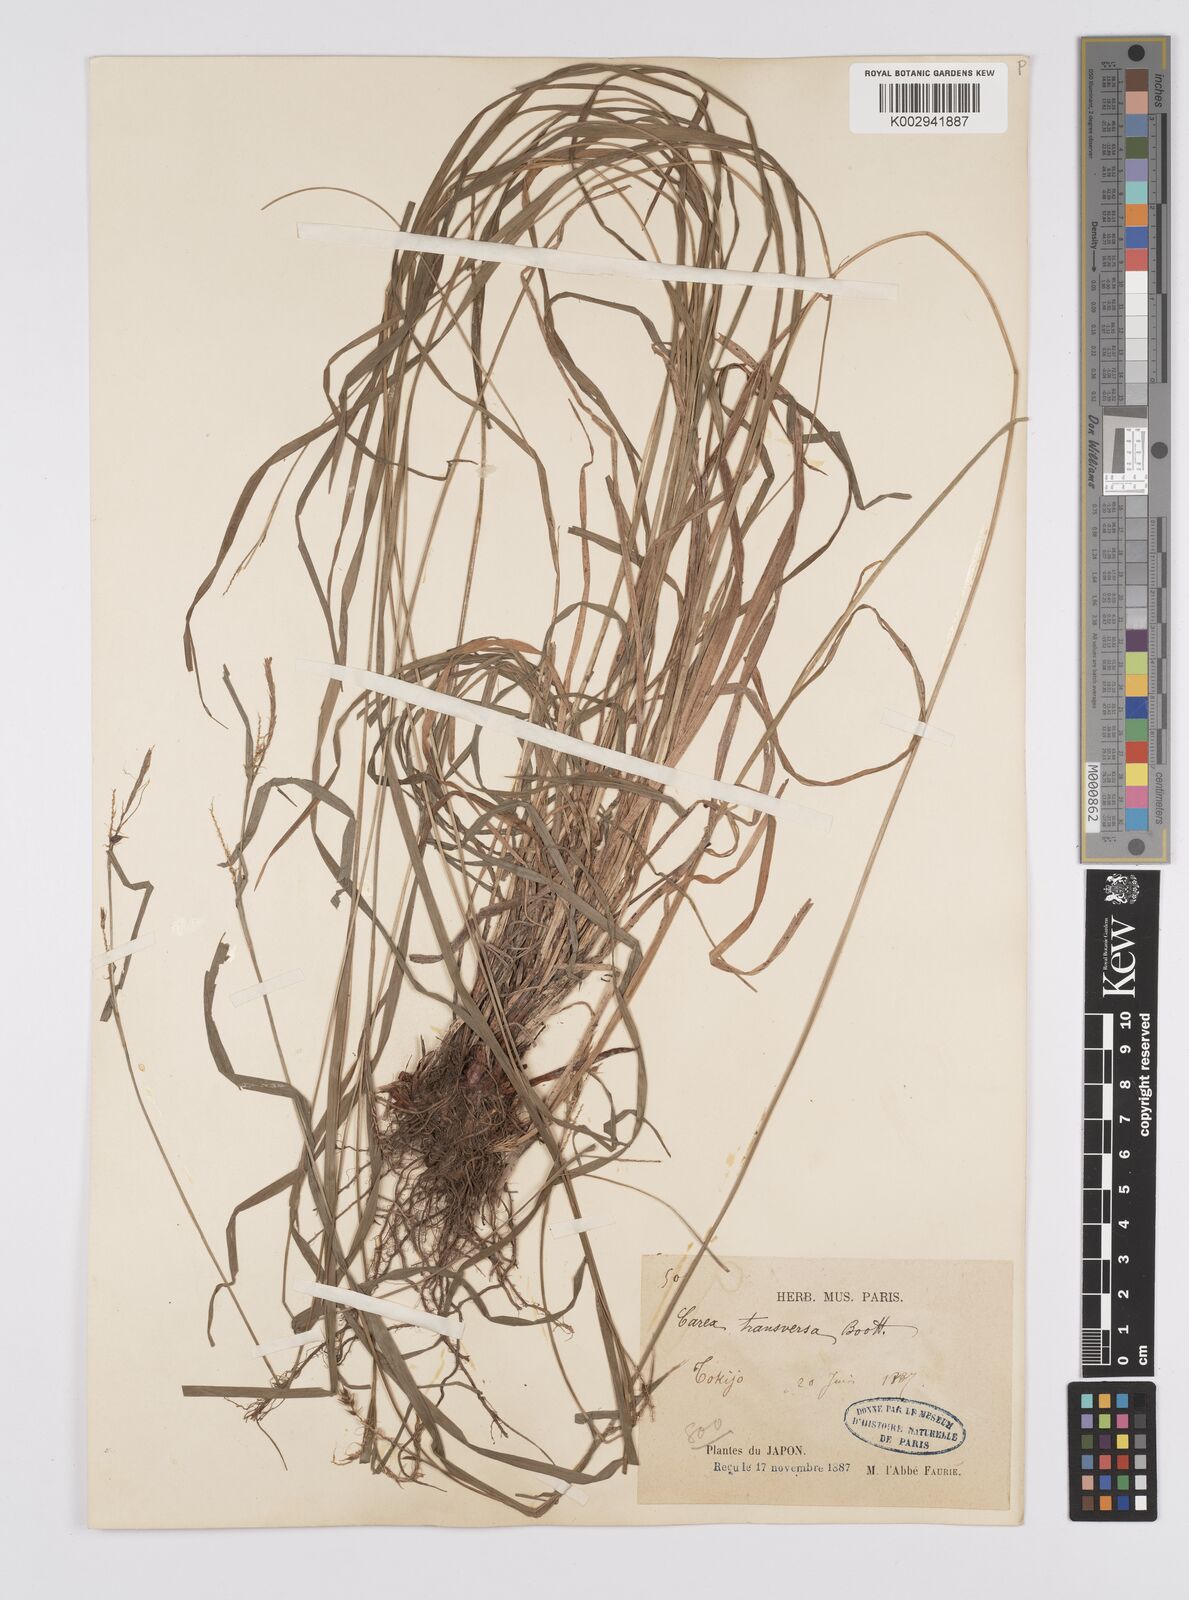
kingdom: Plantae
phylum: Tracheophyta
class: Liliopsida
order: Poales
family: Cyperaceae
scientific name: Cyperaceae
